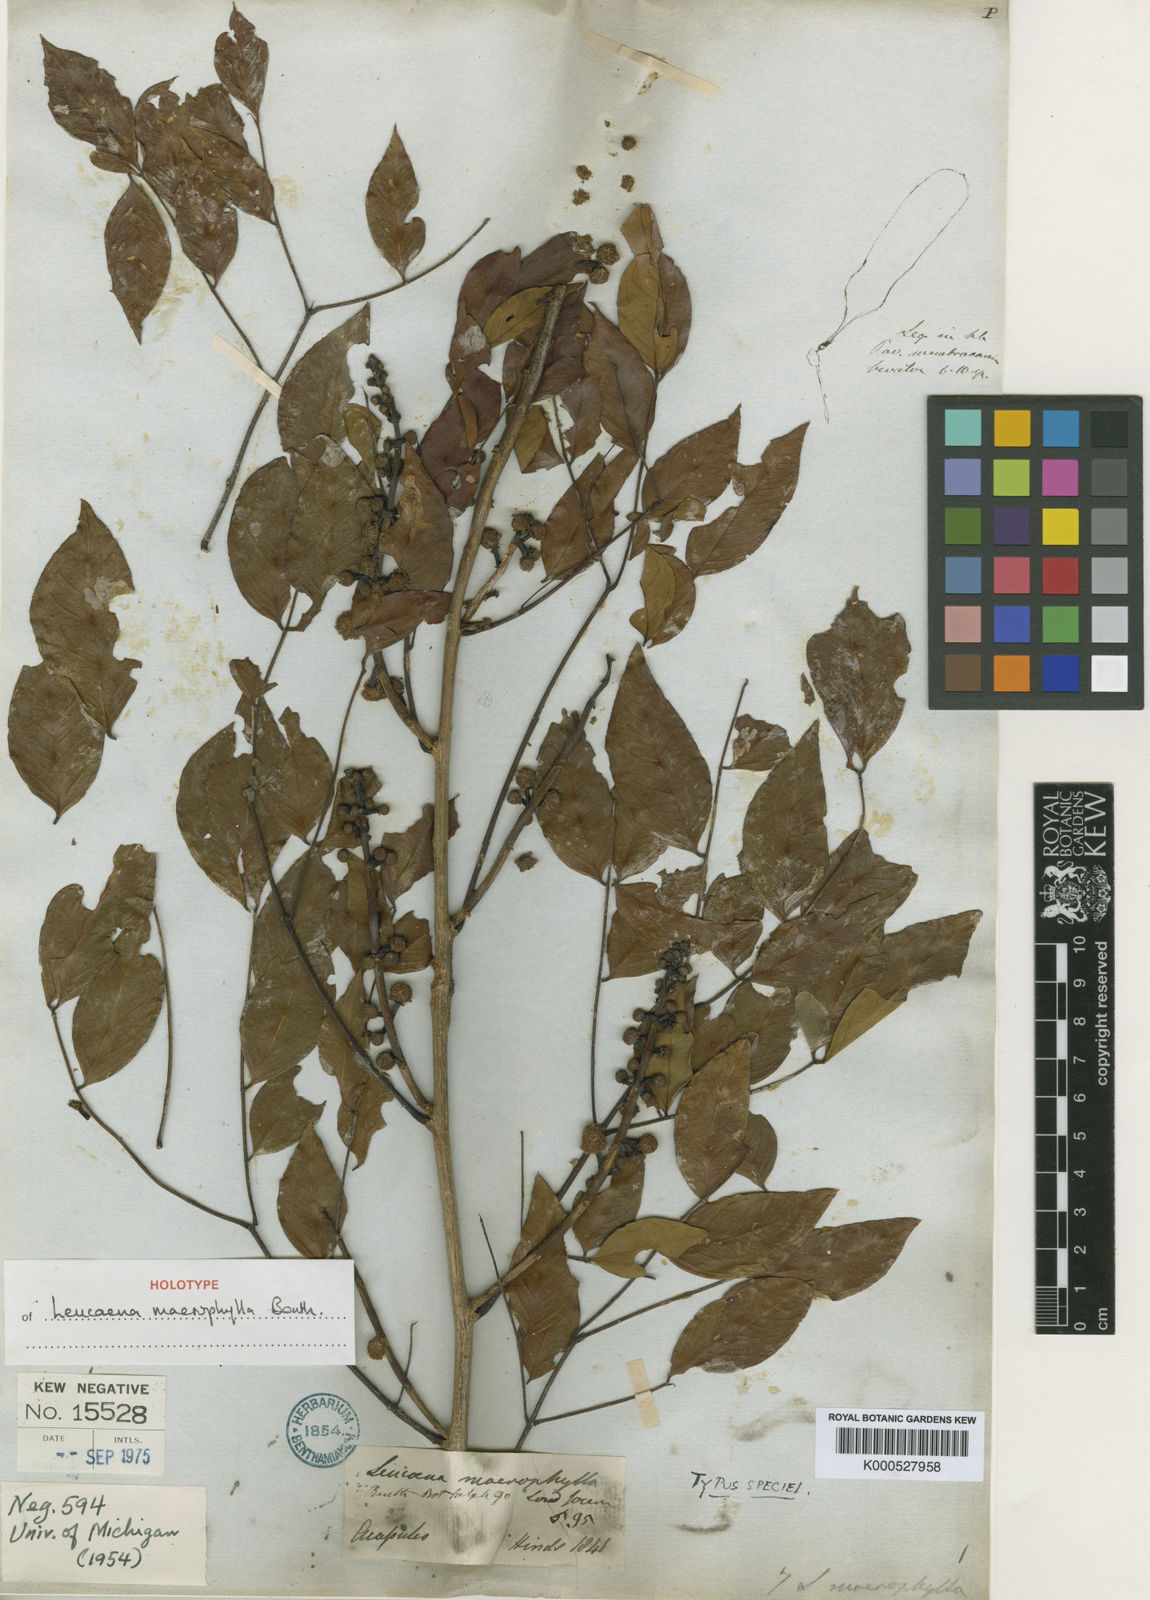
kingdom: Plantae
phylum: Tracheophyta
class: Magnoliopsida
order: Fabales
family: Fabaceae
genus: Leucaena
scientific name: Leucaena macrophylla
